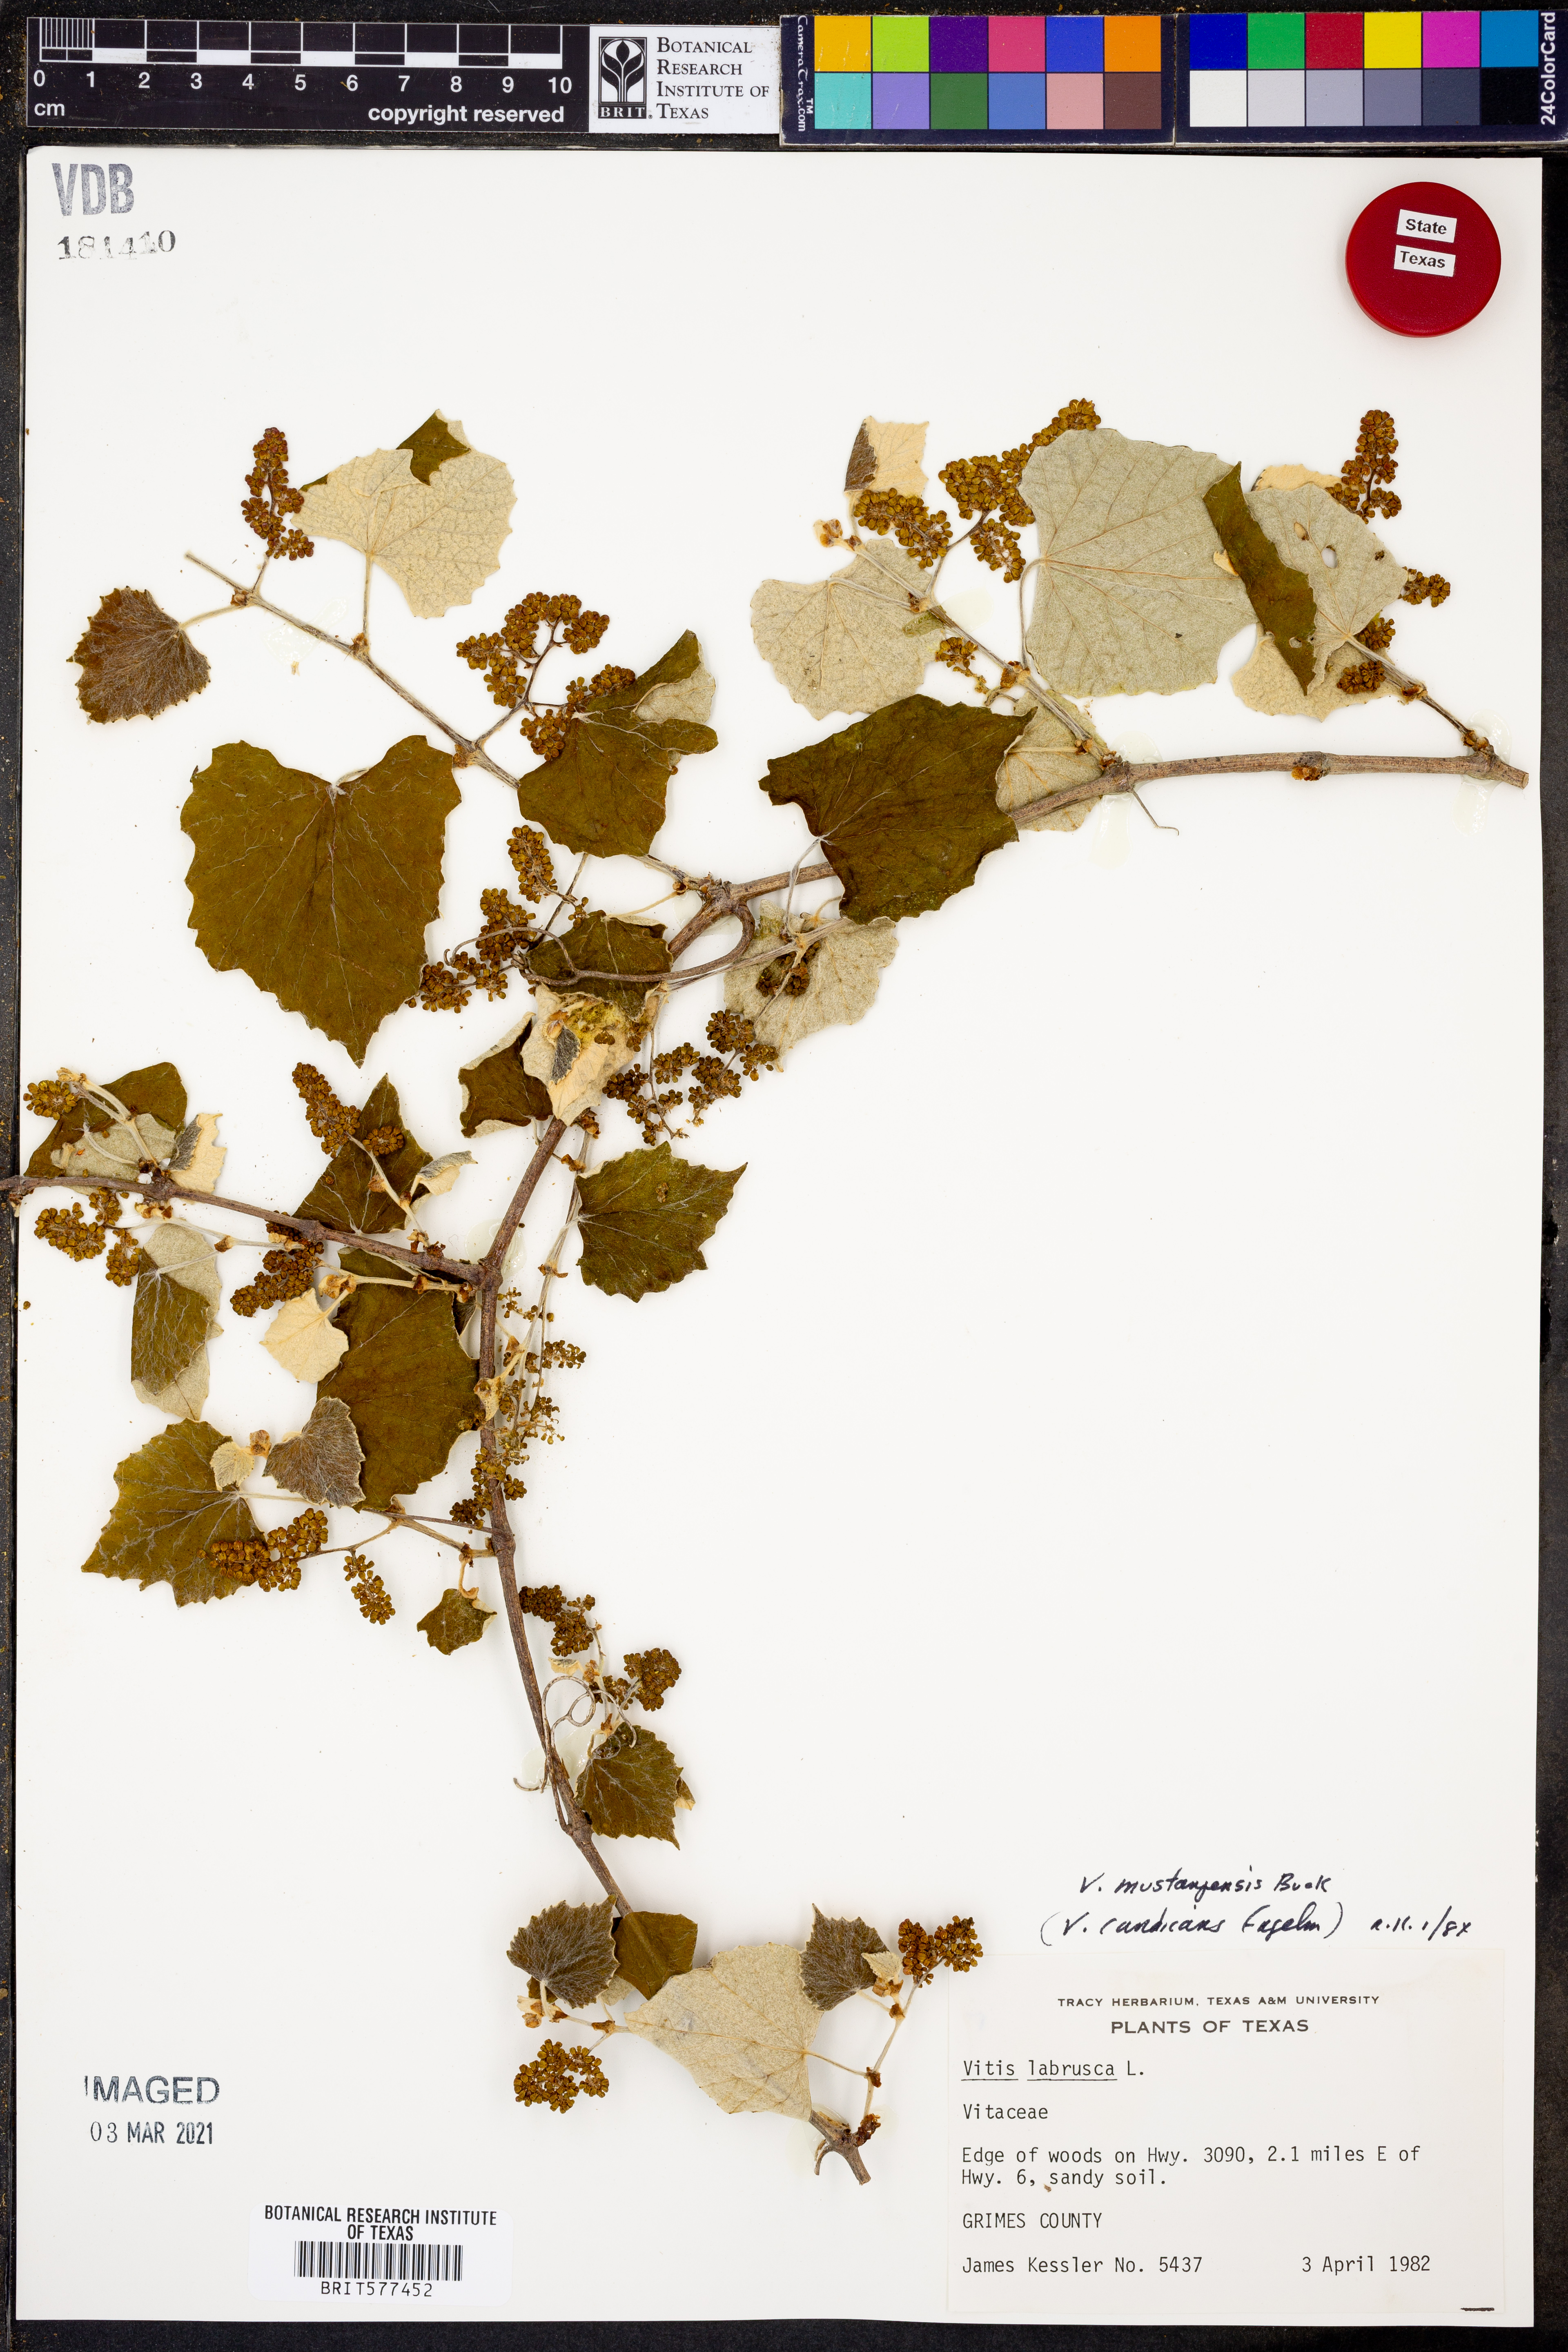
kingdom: Plantae
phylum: Tracheophyta
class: Magnoliopsida
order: Vitales
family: Vitaceae
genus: Vitis
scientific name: Vitis mustangensis
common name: Mustang grape
